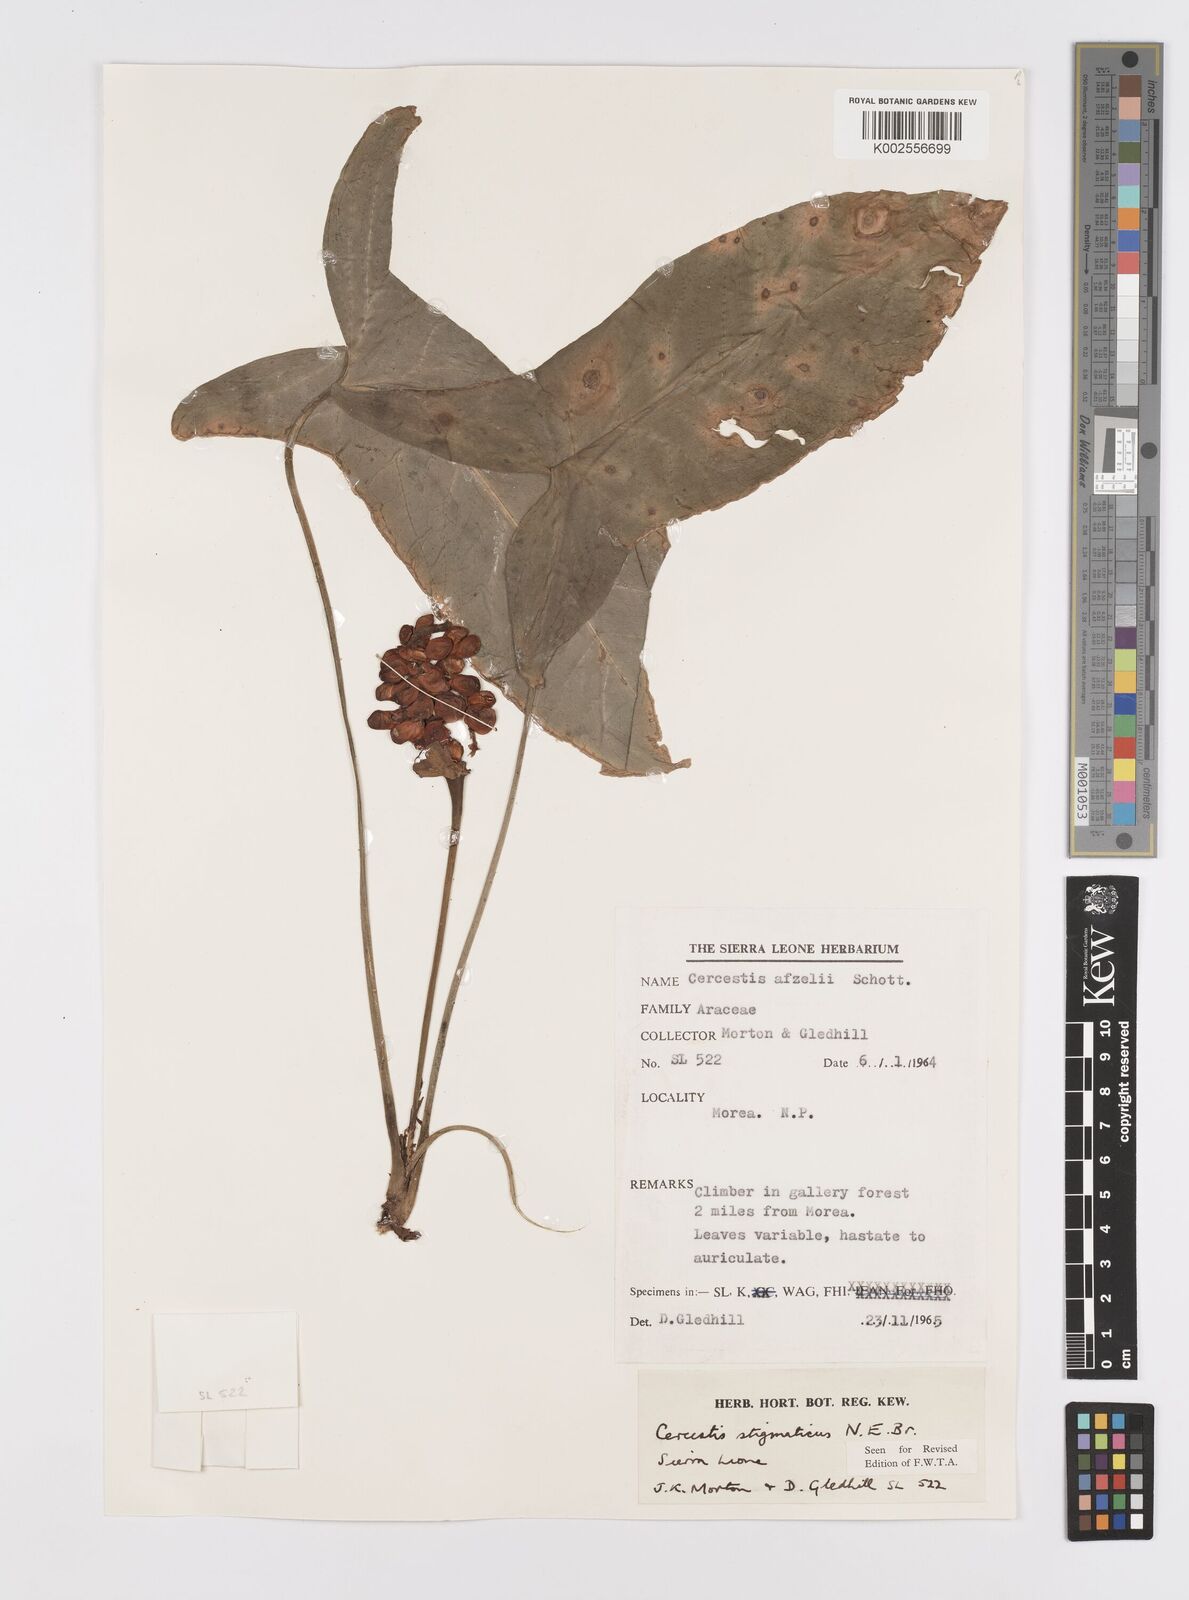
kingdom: Plantae
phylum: Tracheophyta
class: Liliopsida
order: Alismatales
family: Araceae
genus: Cercestis
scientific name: Cercestis dinklagei
